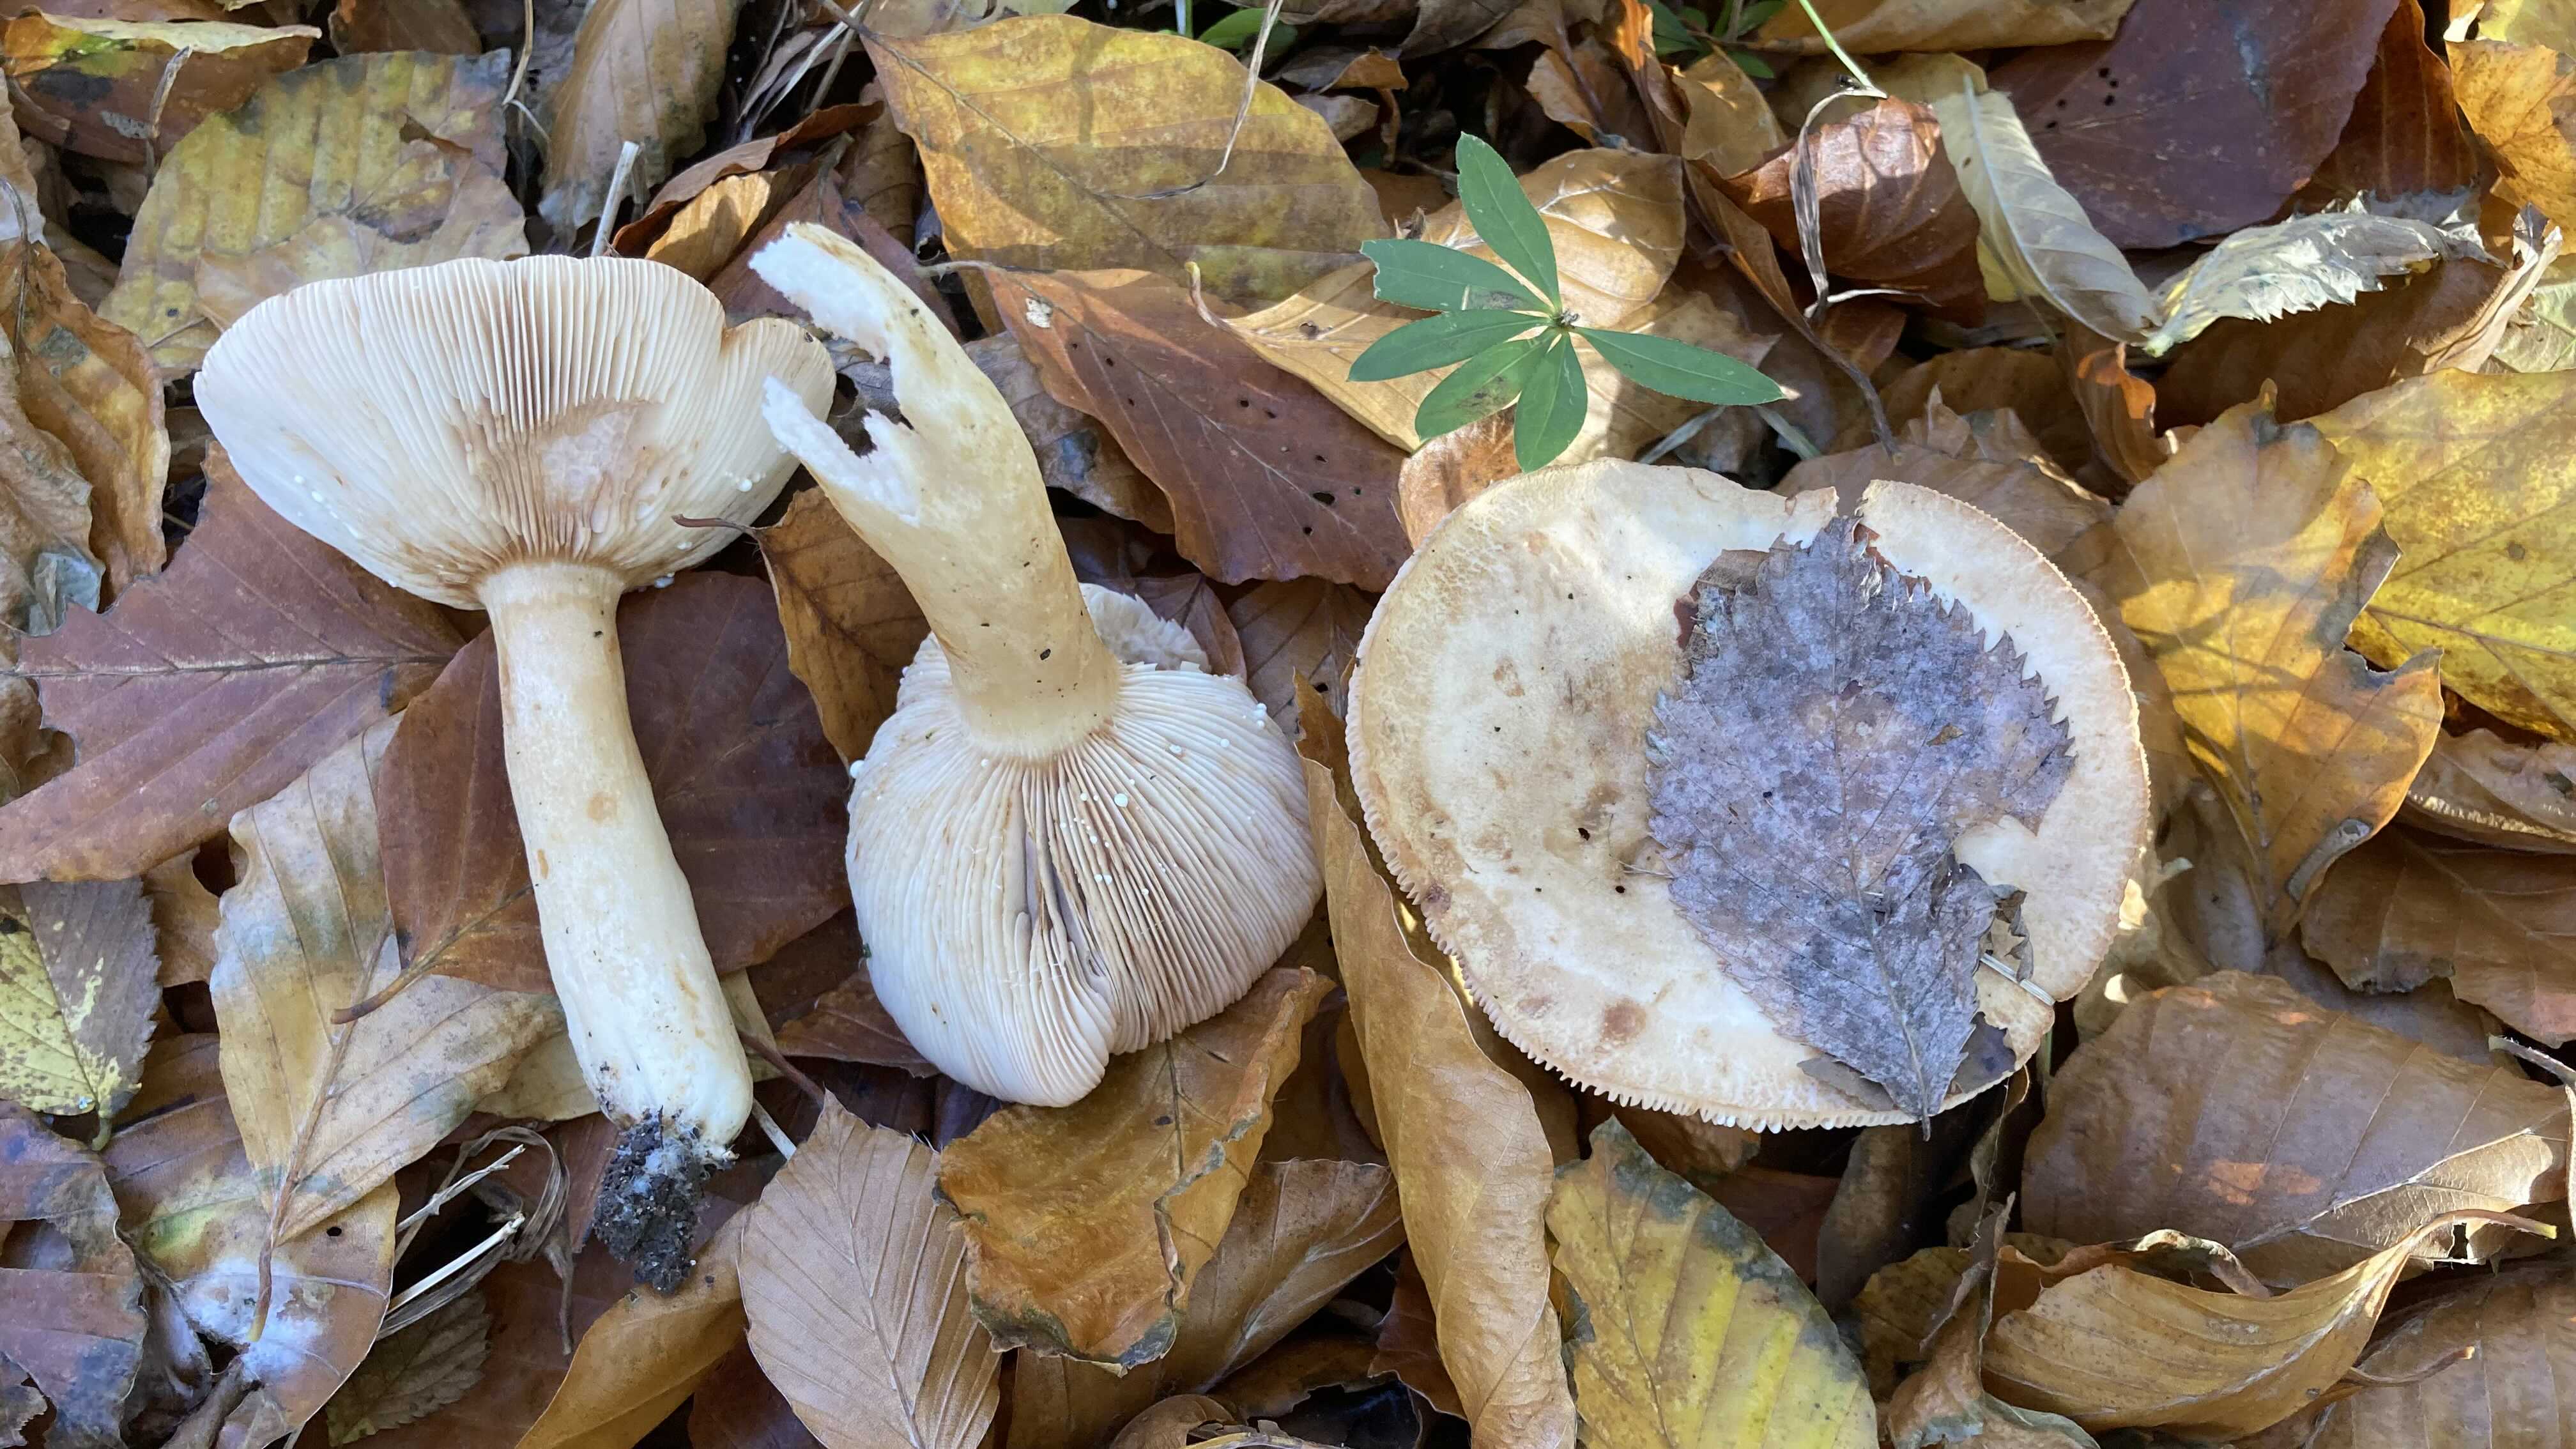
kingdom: Fungi
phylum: Basidiomycota
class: Agaricomycetes
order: Russulales
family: Russulaceae
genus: Lactarius
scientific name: Lactarius pallidus
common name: bleg mælkehat
